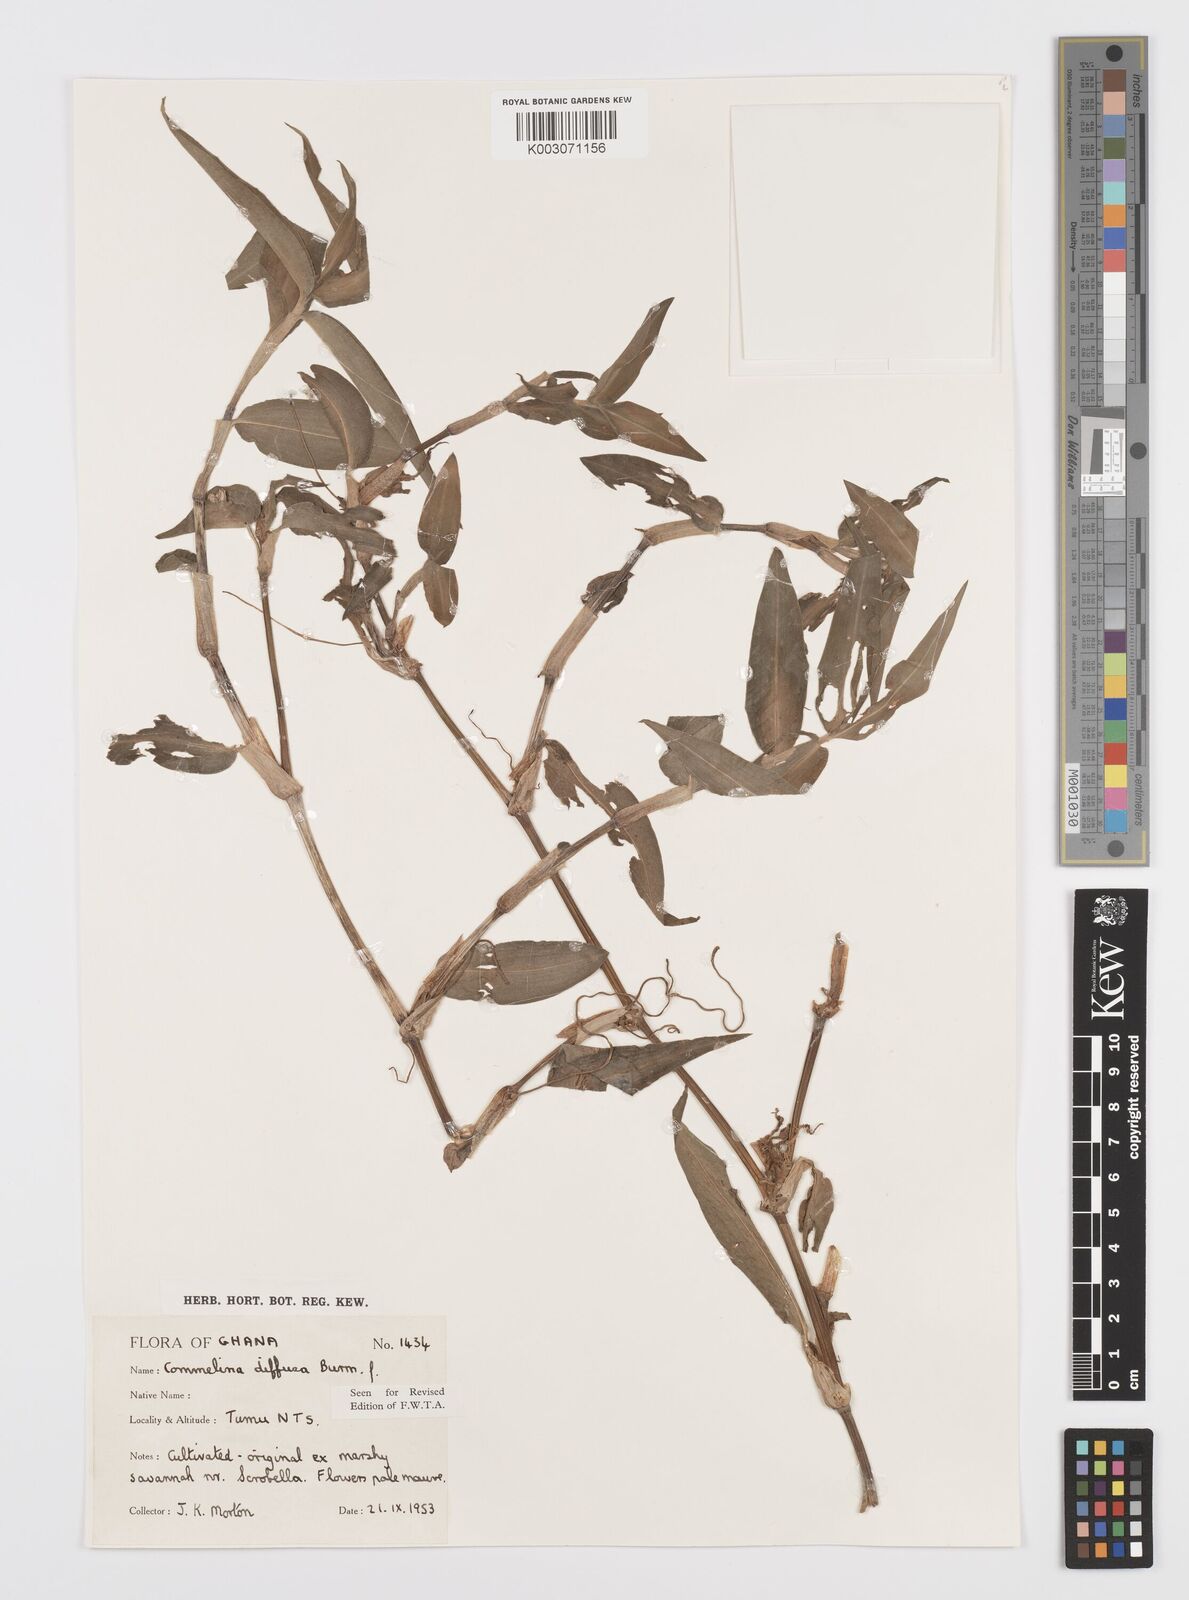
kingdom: Plantae
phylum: Tracheophyta
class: Liliopsida
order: Commelinales
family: Commelinaceae
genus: Commelina
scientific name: Commelina diffusa
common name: Climbing dayflower
